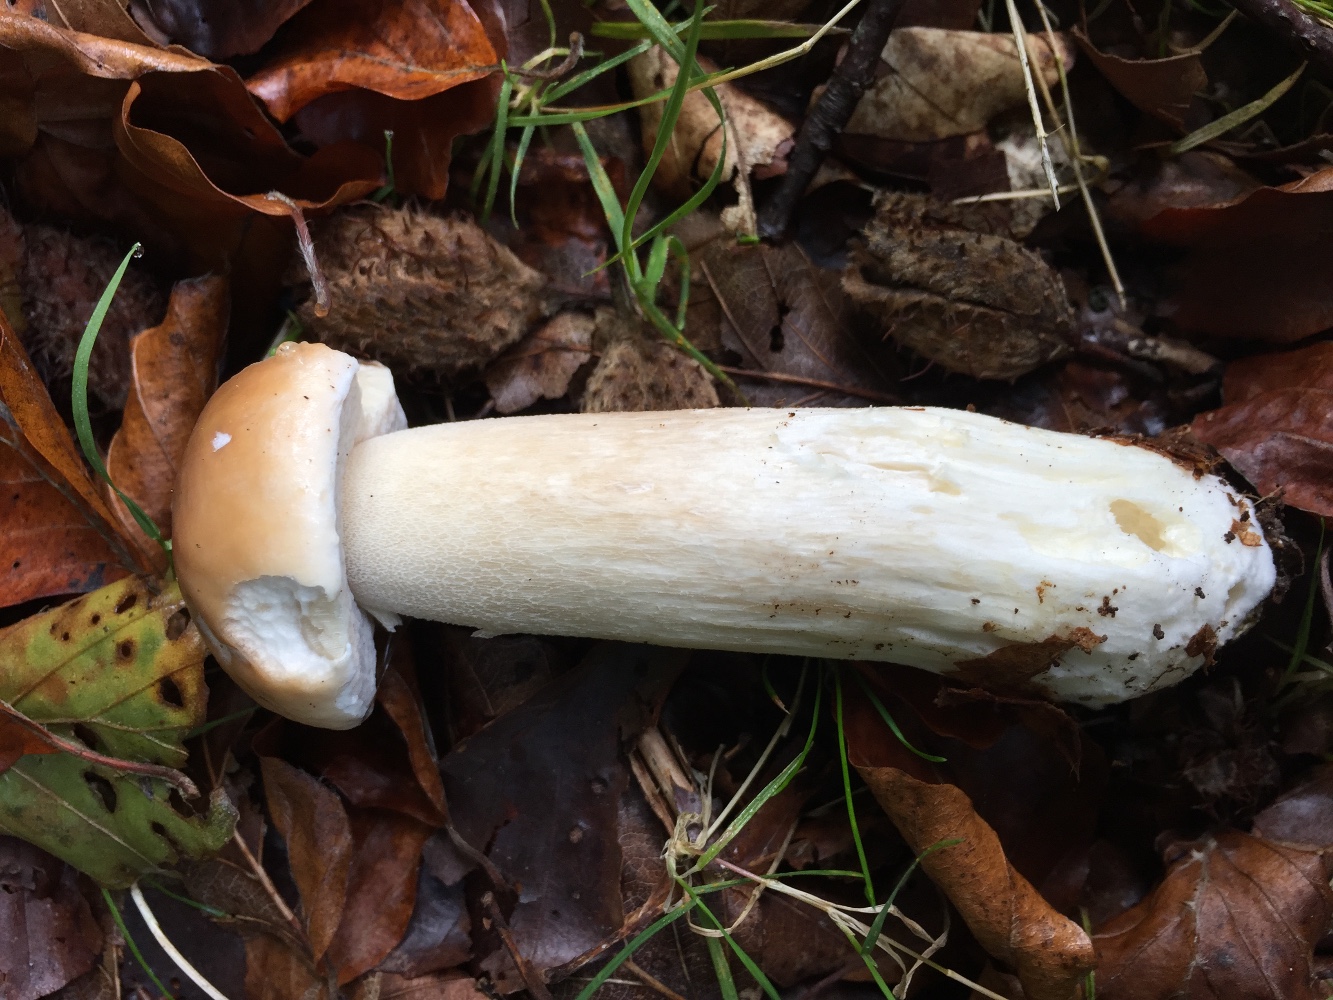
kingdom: Fungi
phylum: Basidiomycota
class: Agaricomycetes
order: Boletales
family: Boletaceae
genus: Boletus
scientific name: Boletus edulis
